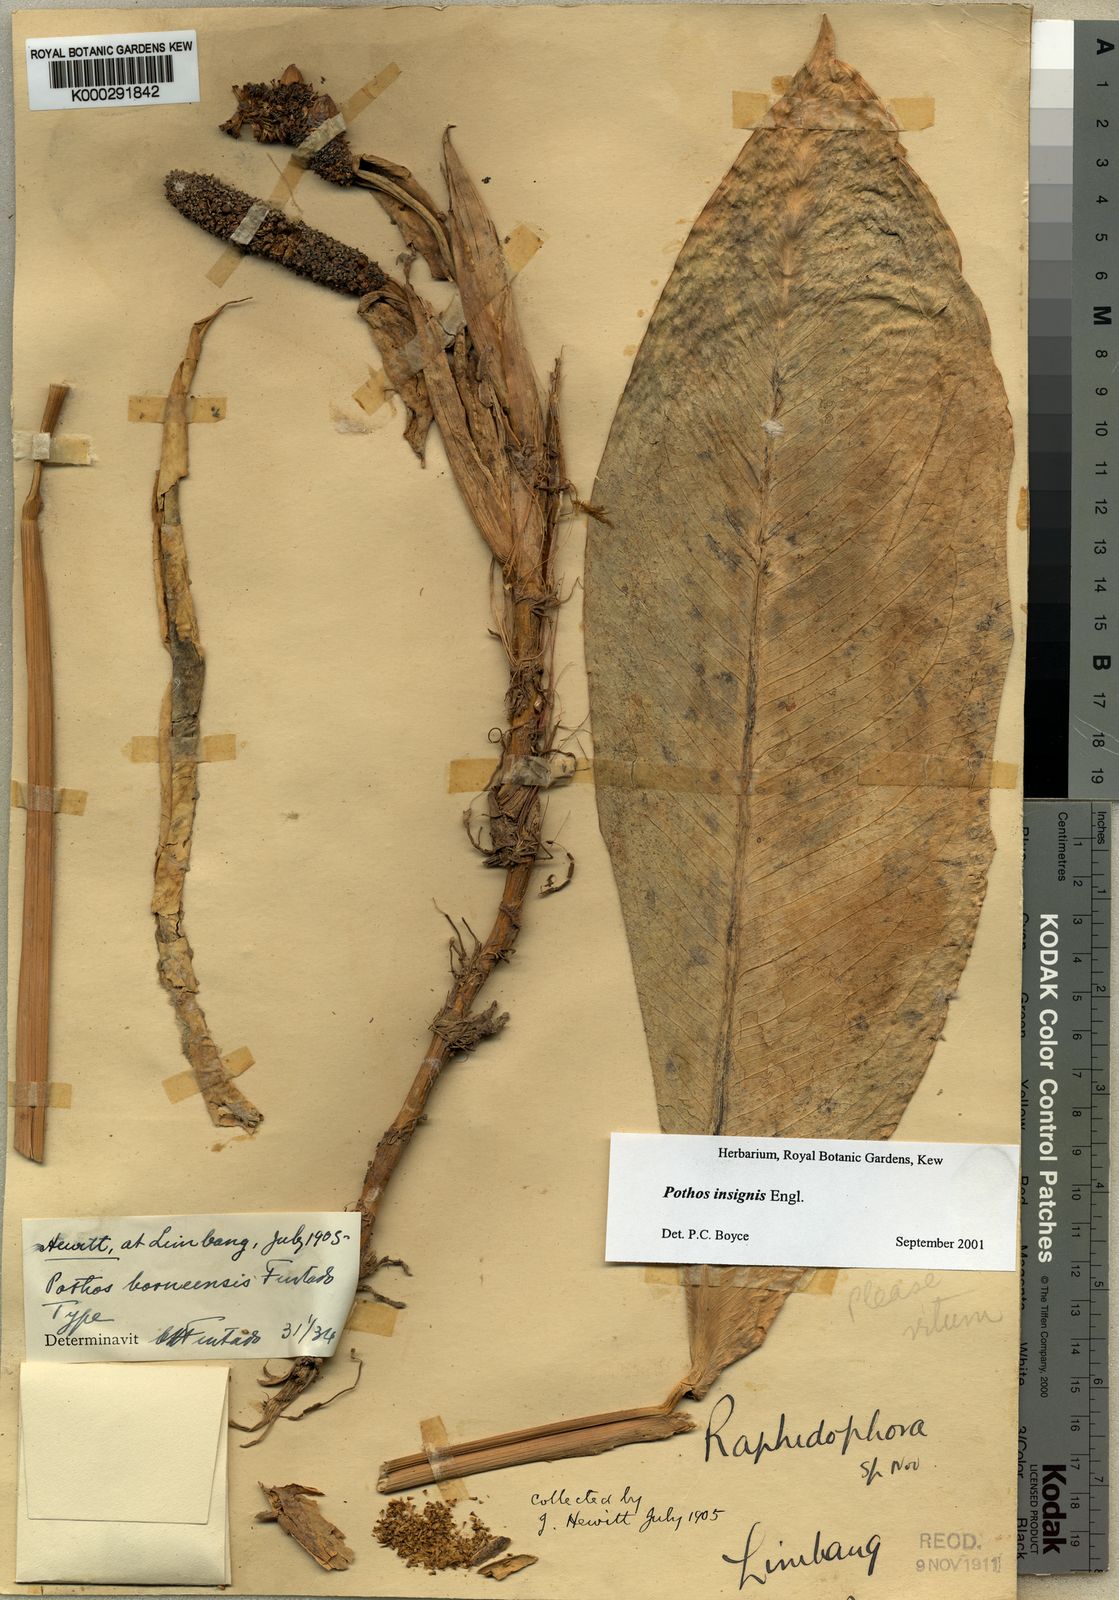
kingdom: Plantae
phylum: Tracheophyta
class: Liliopsida
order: Alismatales
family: Araceae
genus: Pothos
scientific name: Pothos insignis
